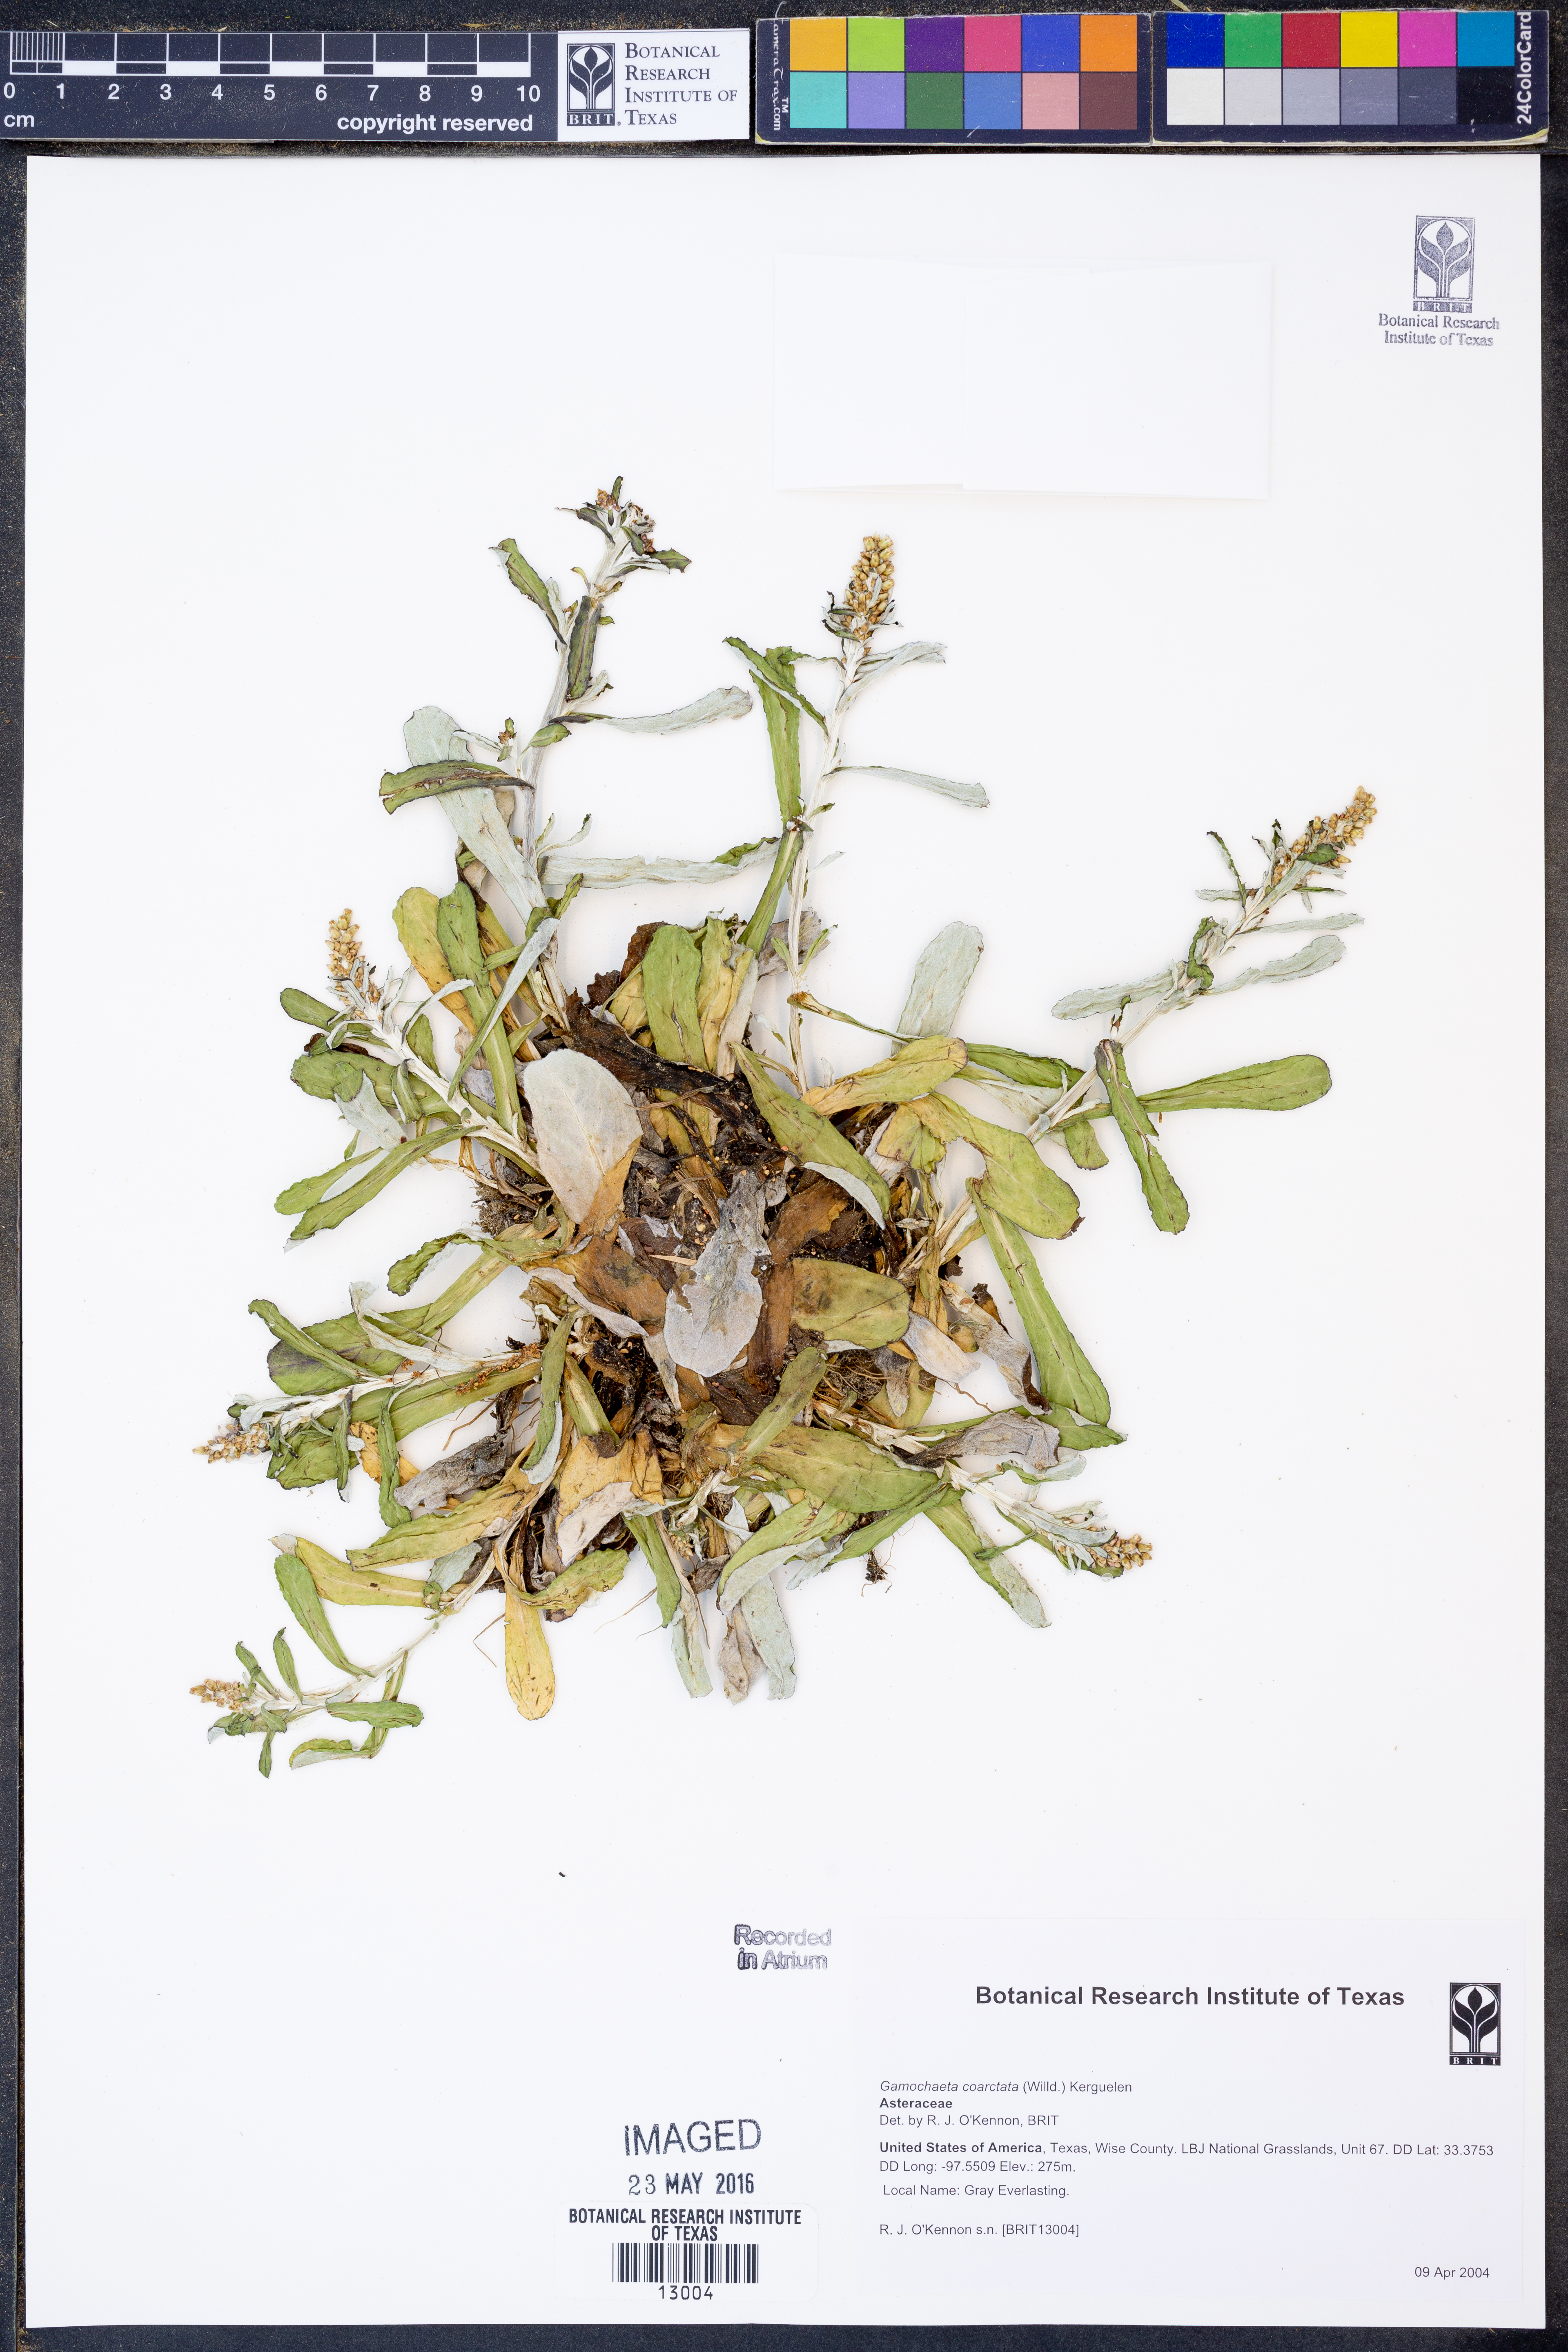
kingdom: Plantae
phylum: Tracheophyta
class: Magnoliopsida
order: Asterales
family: Asteraceae
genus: Gamochaeta
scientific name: Gamochaeta americana
